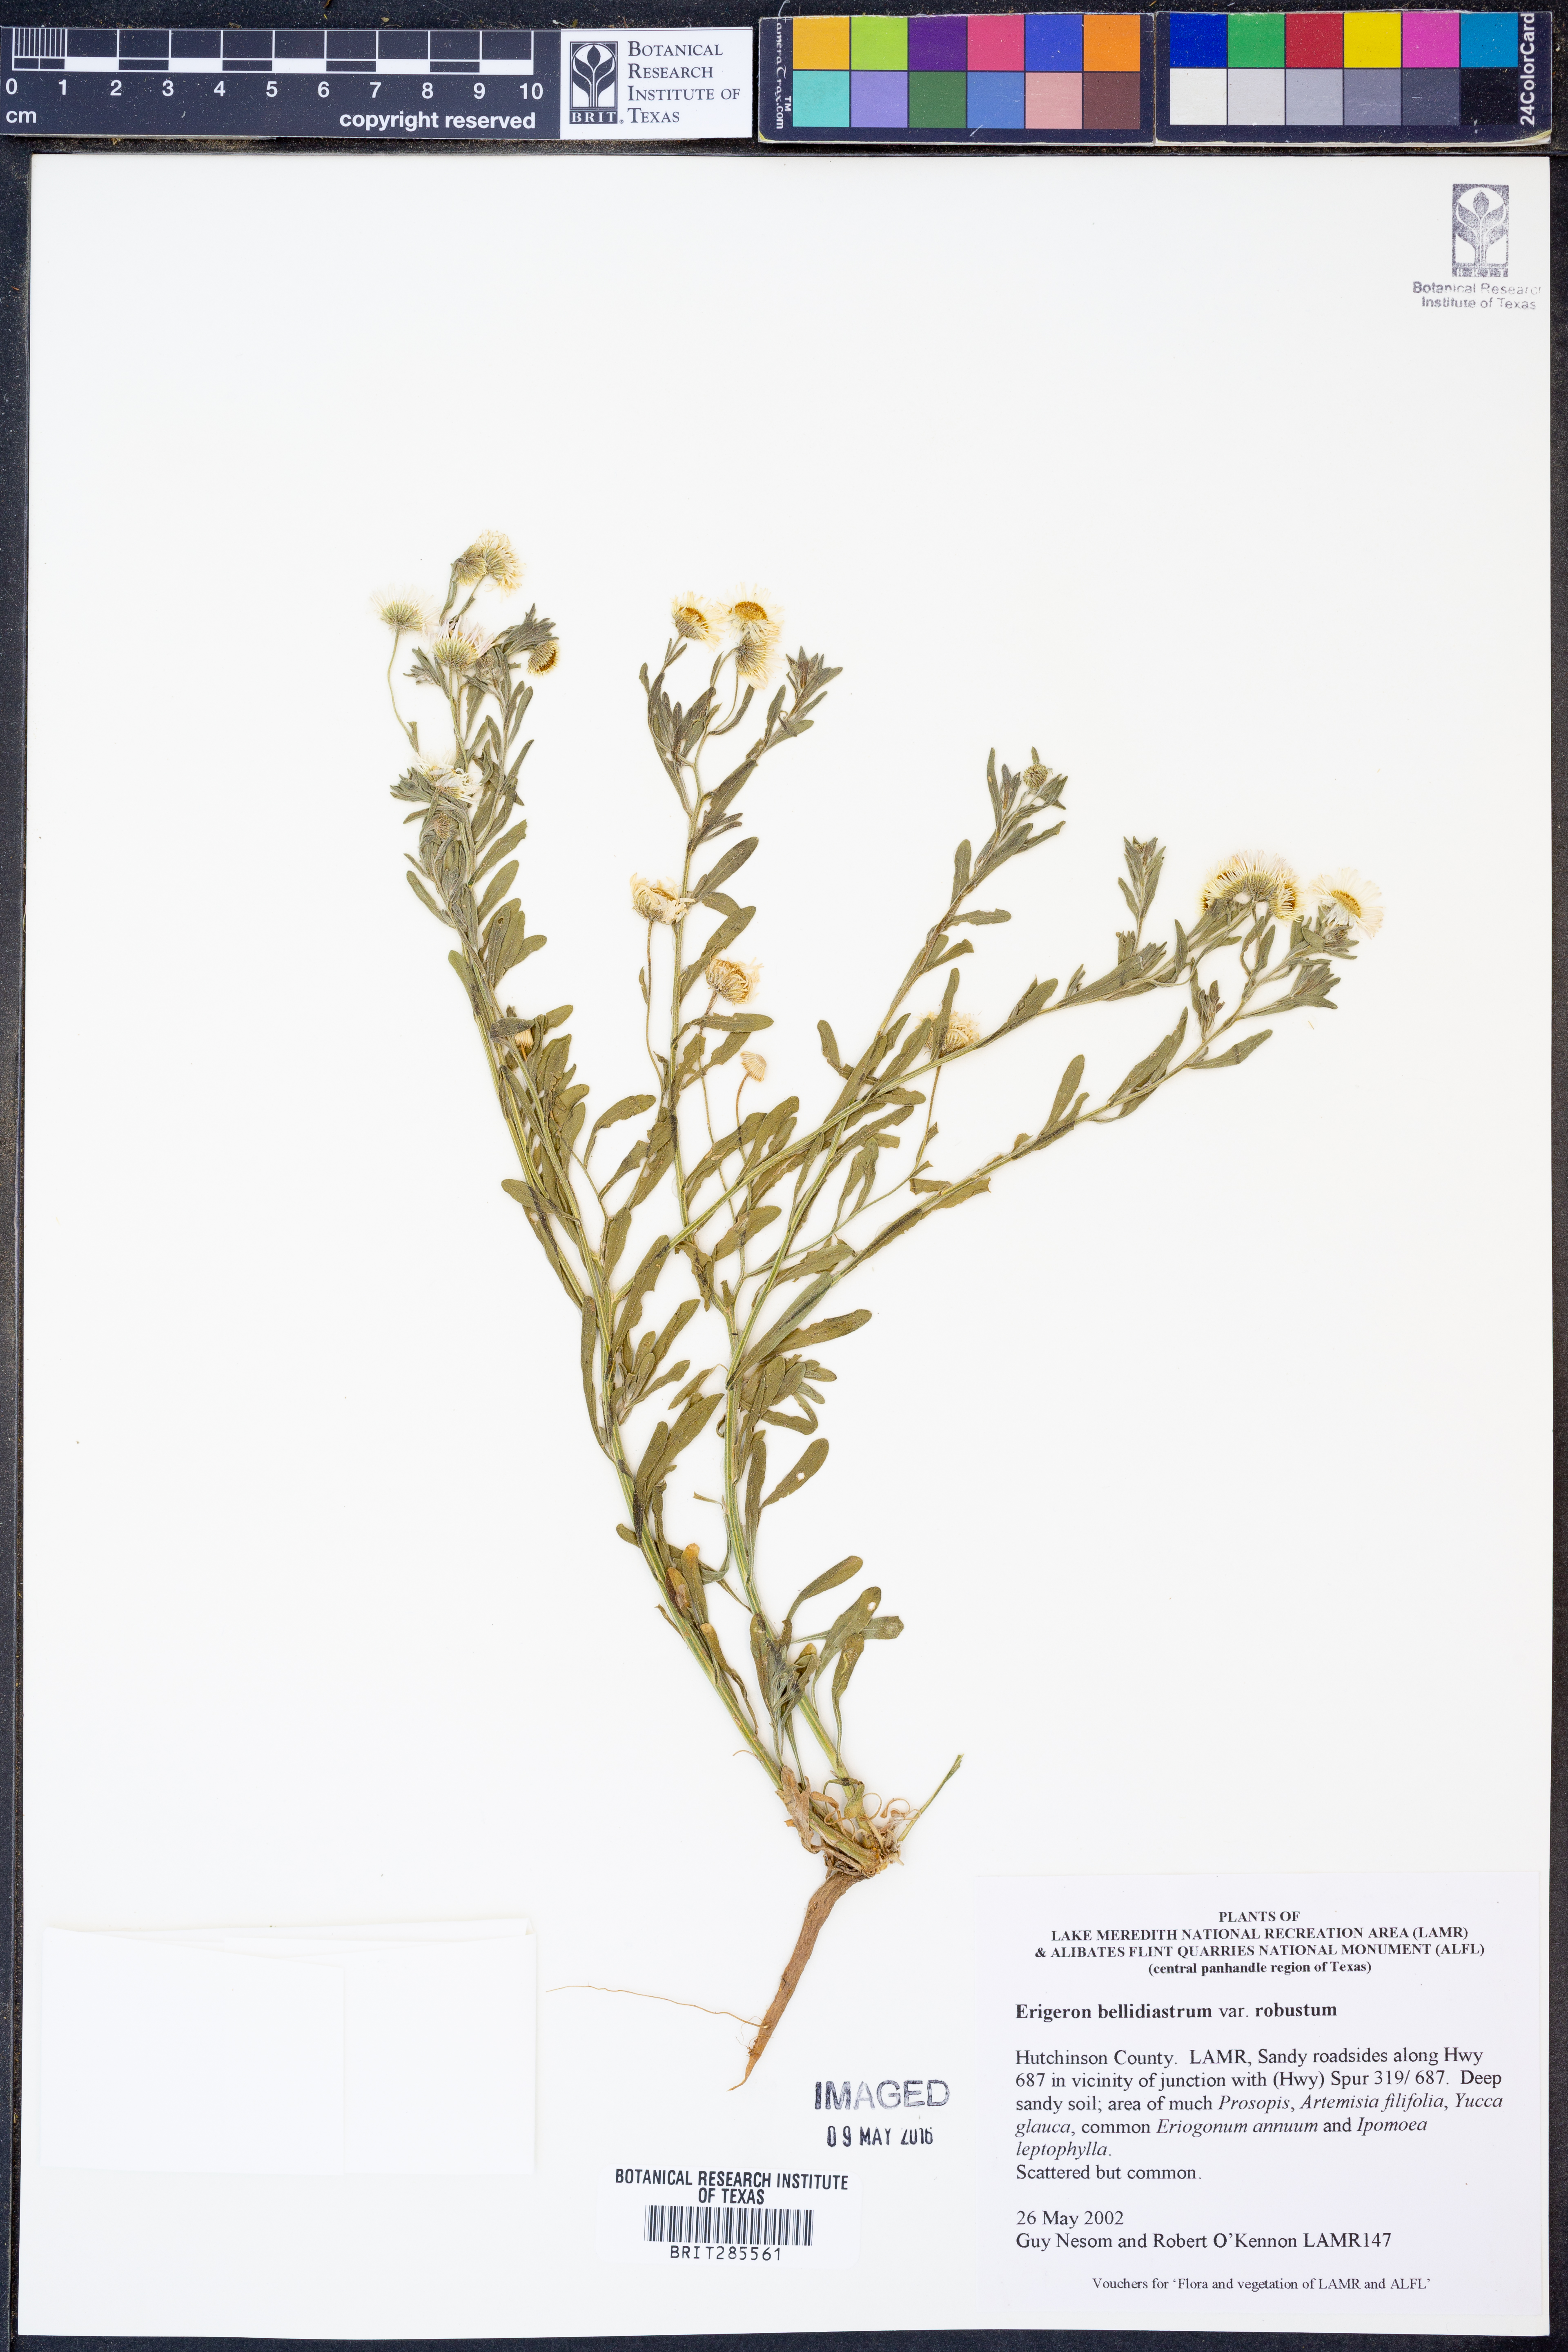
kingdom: Plantae
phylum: Tracheophyta
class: Magnoliopsida
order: Asterales
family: Asteraceae
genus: Erigeron
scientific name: Erigeron bellidiastrum
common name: Sand fleabane
